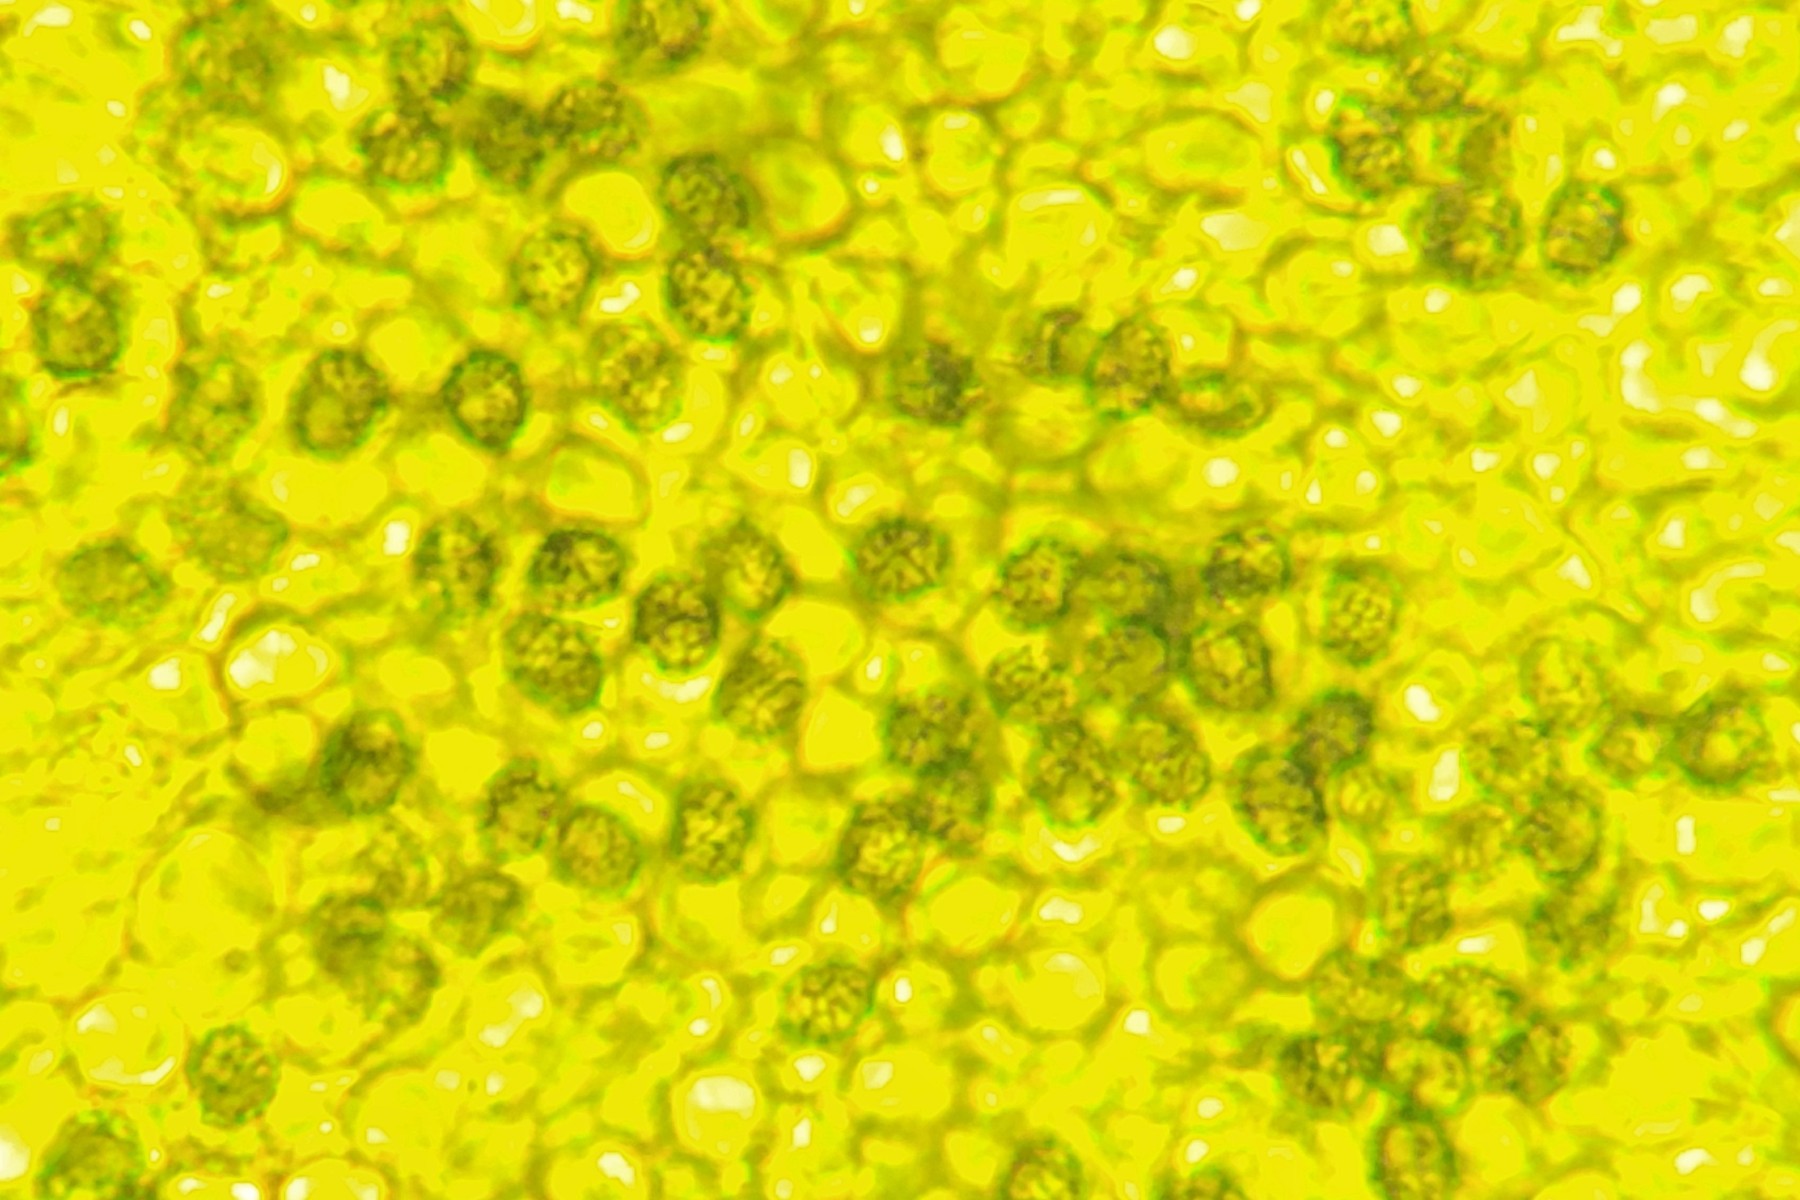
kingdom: Fungi
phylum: Basidiomycota
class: Agaricomycetes
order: Russulales
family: Russulaceae
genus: Lactarius
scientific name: Lactarius lilacinus
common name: lilla mælkehat
